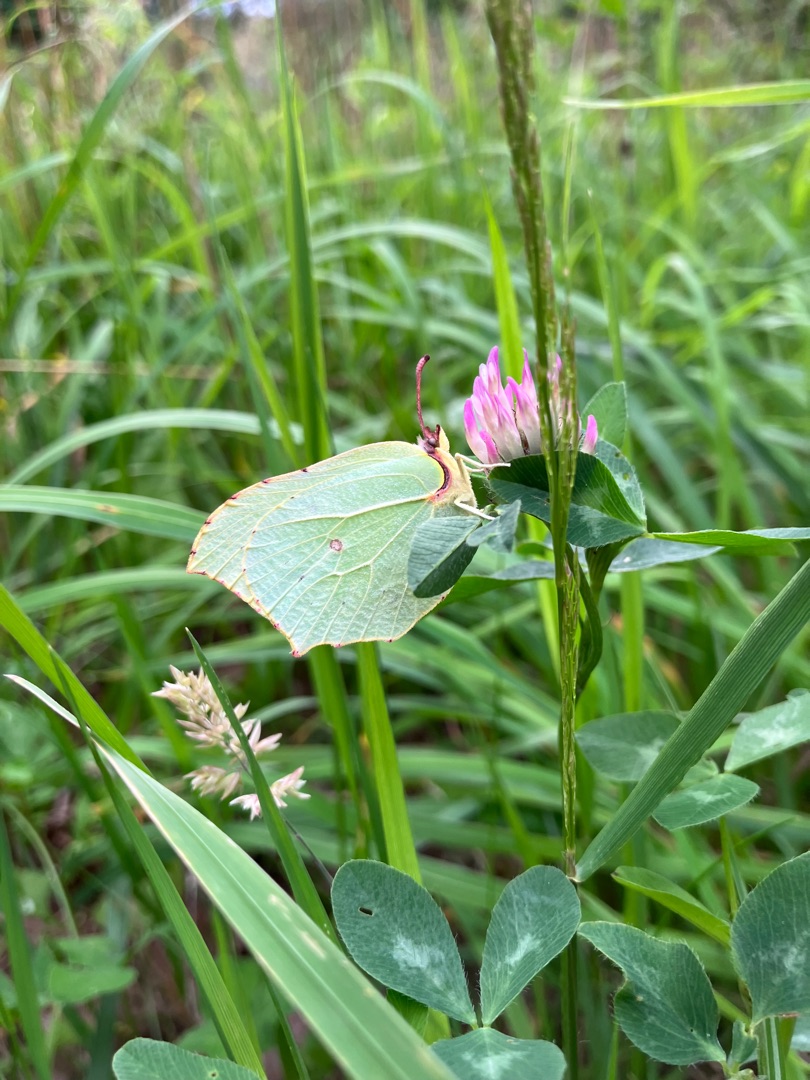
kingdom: Animalia
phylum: Arthropoda
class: Insecta
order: Lepidoptera
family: Pieridae
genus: Gonepteryx
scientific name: Gonepteryx rhamni
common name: Citronsommerfugl
